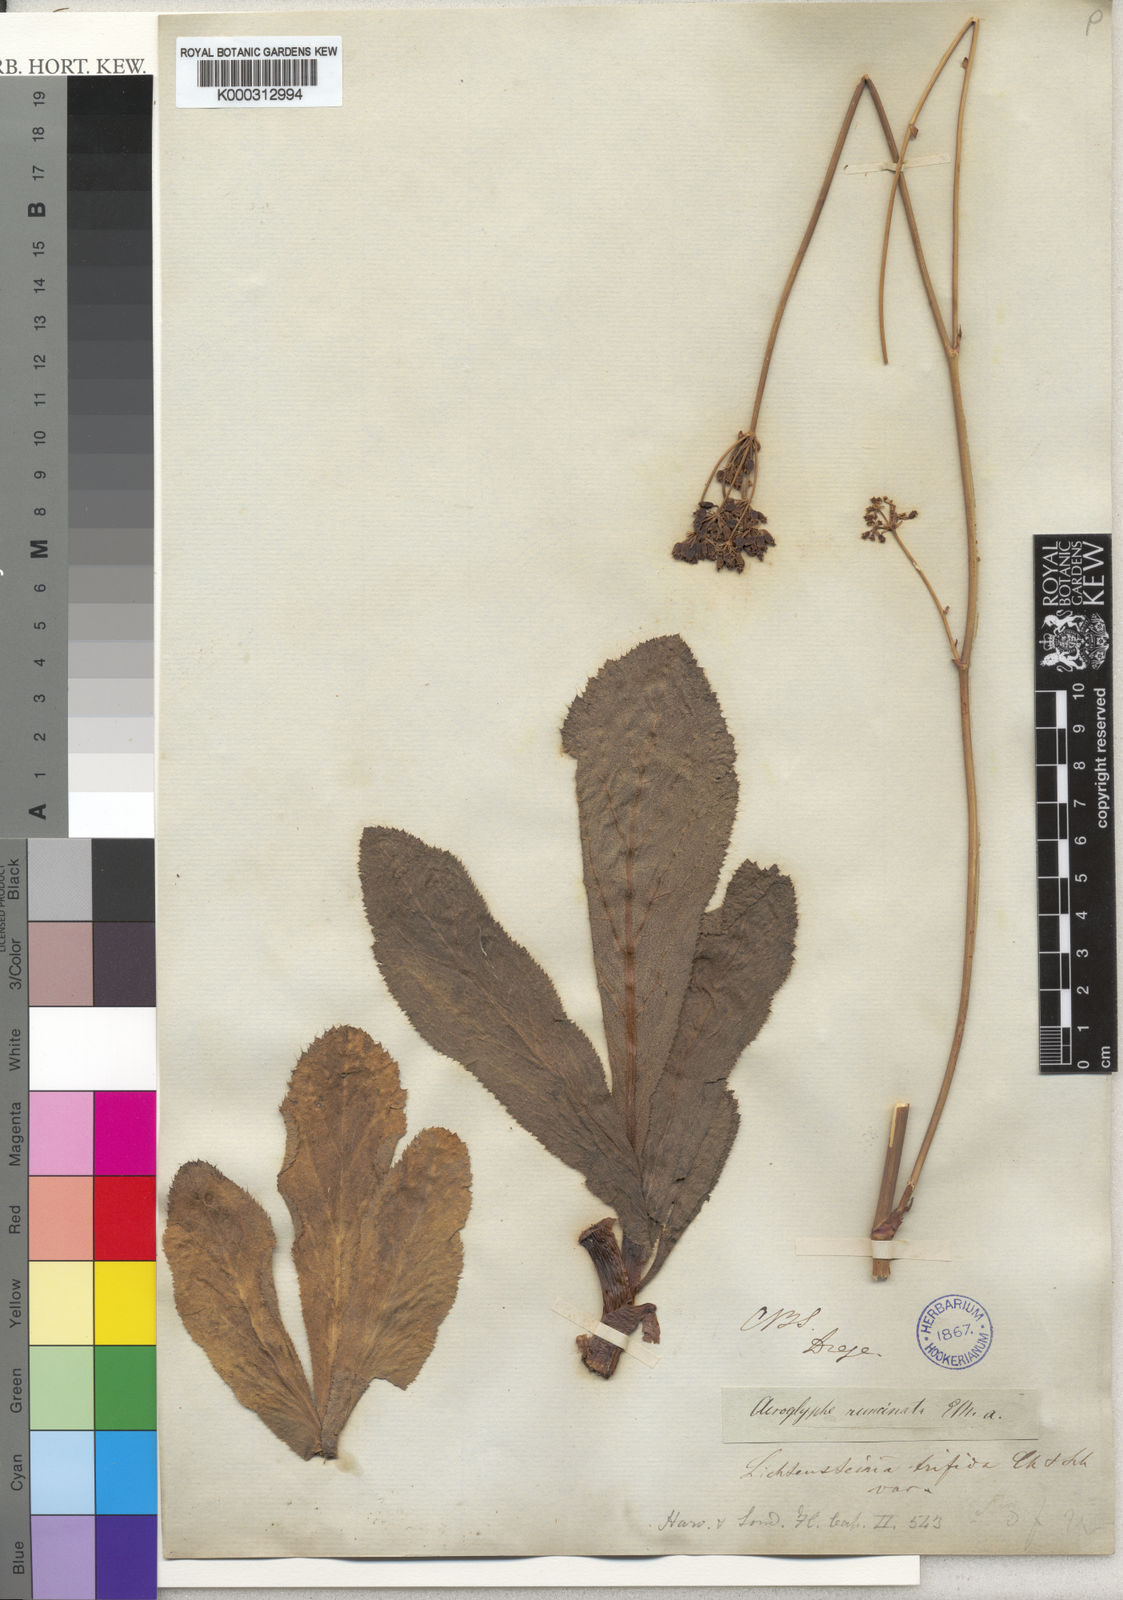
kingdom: Plantae
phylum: Tracheophyta
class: Magnoliopsida
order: Apiales
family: Apiaceae
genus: Lichtensteinia
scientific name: Lichtensteinia trifida
